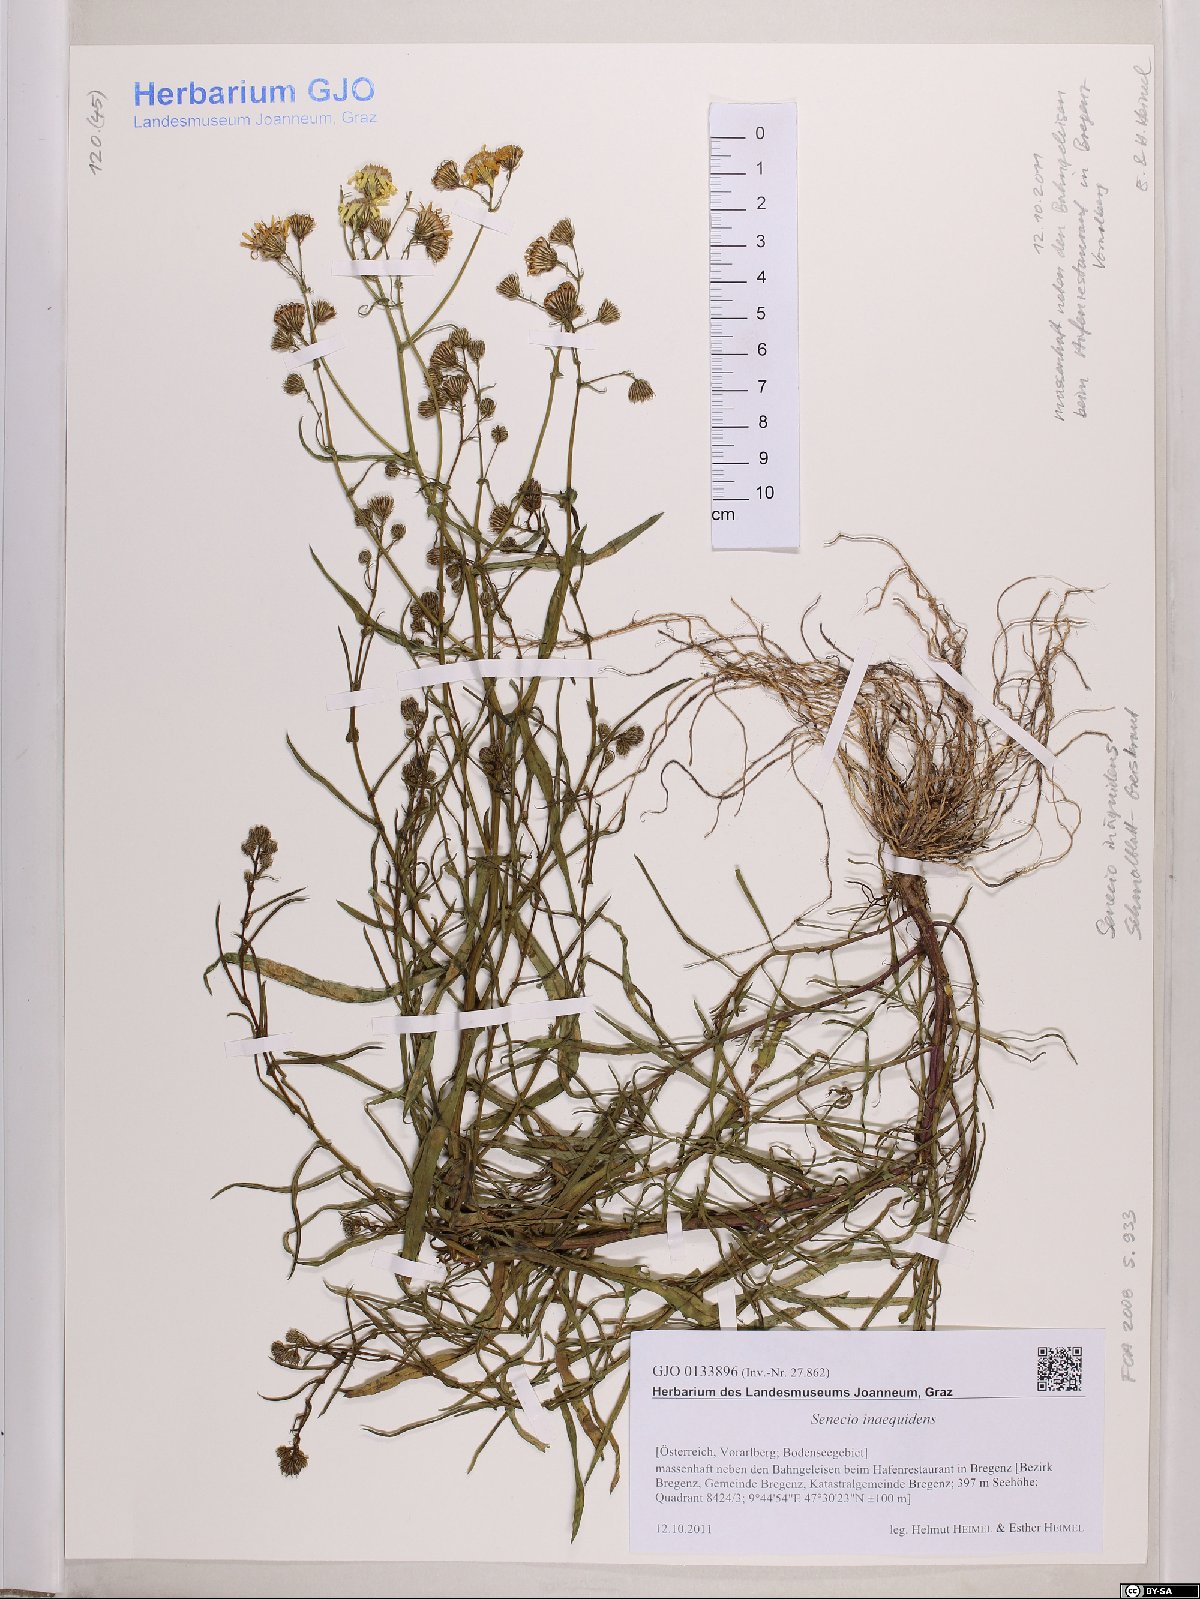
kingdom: Plantae
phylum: Tracheophyta
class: Magnoliopsida
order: Asterales
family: Asteraceae
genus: Senecio
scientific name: Senecio inaequidens
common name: Narrow-leaved ragwort
